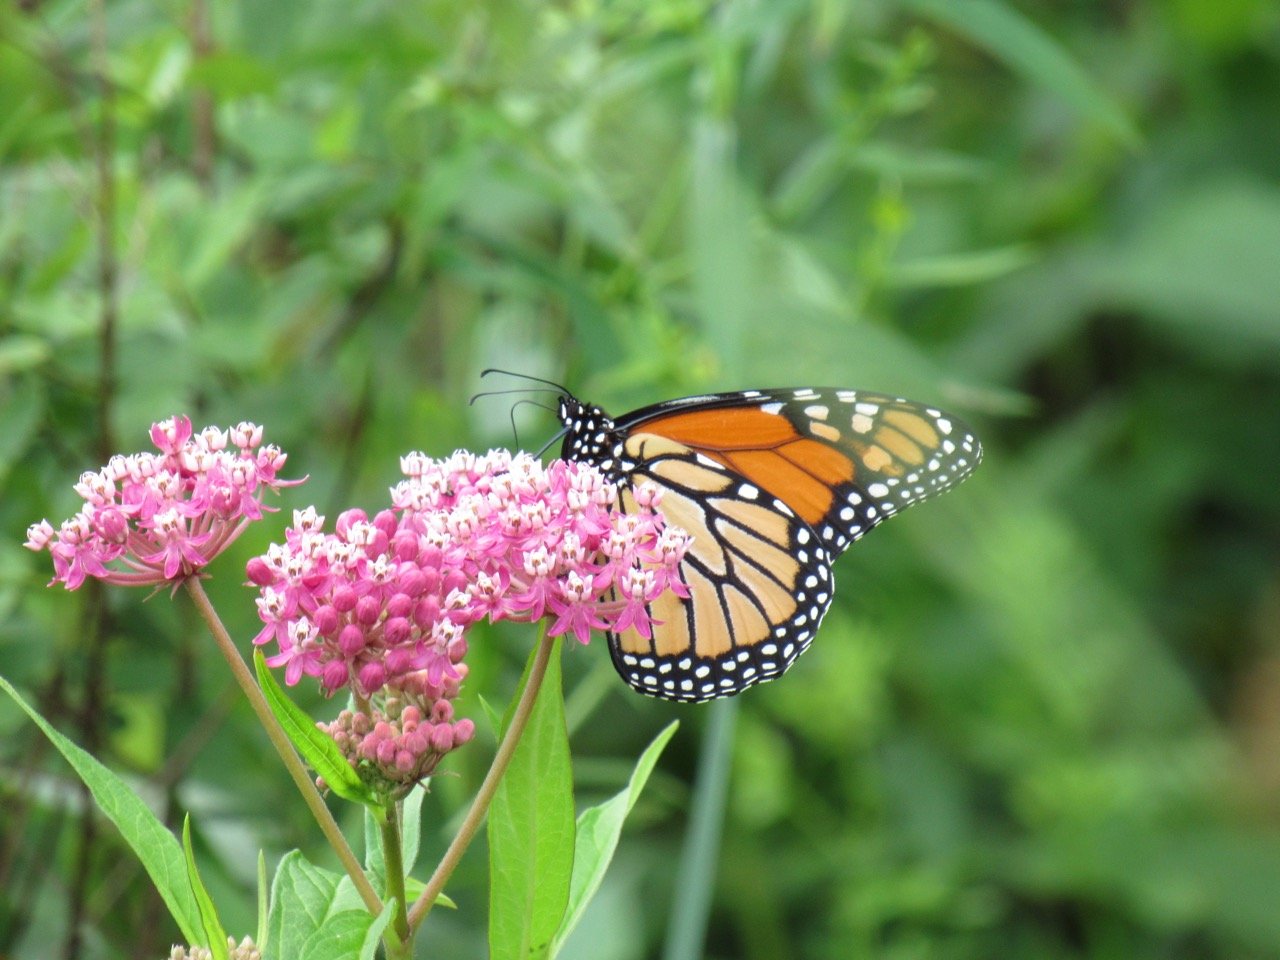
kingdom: Animalia
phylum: Arthropoda
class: Insecta
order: Lepidoptera
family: Nymphalidae
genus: Danaus
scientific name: Danaus plexippus
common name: Monarch
